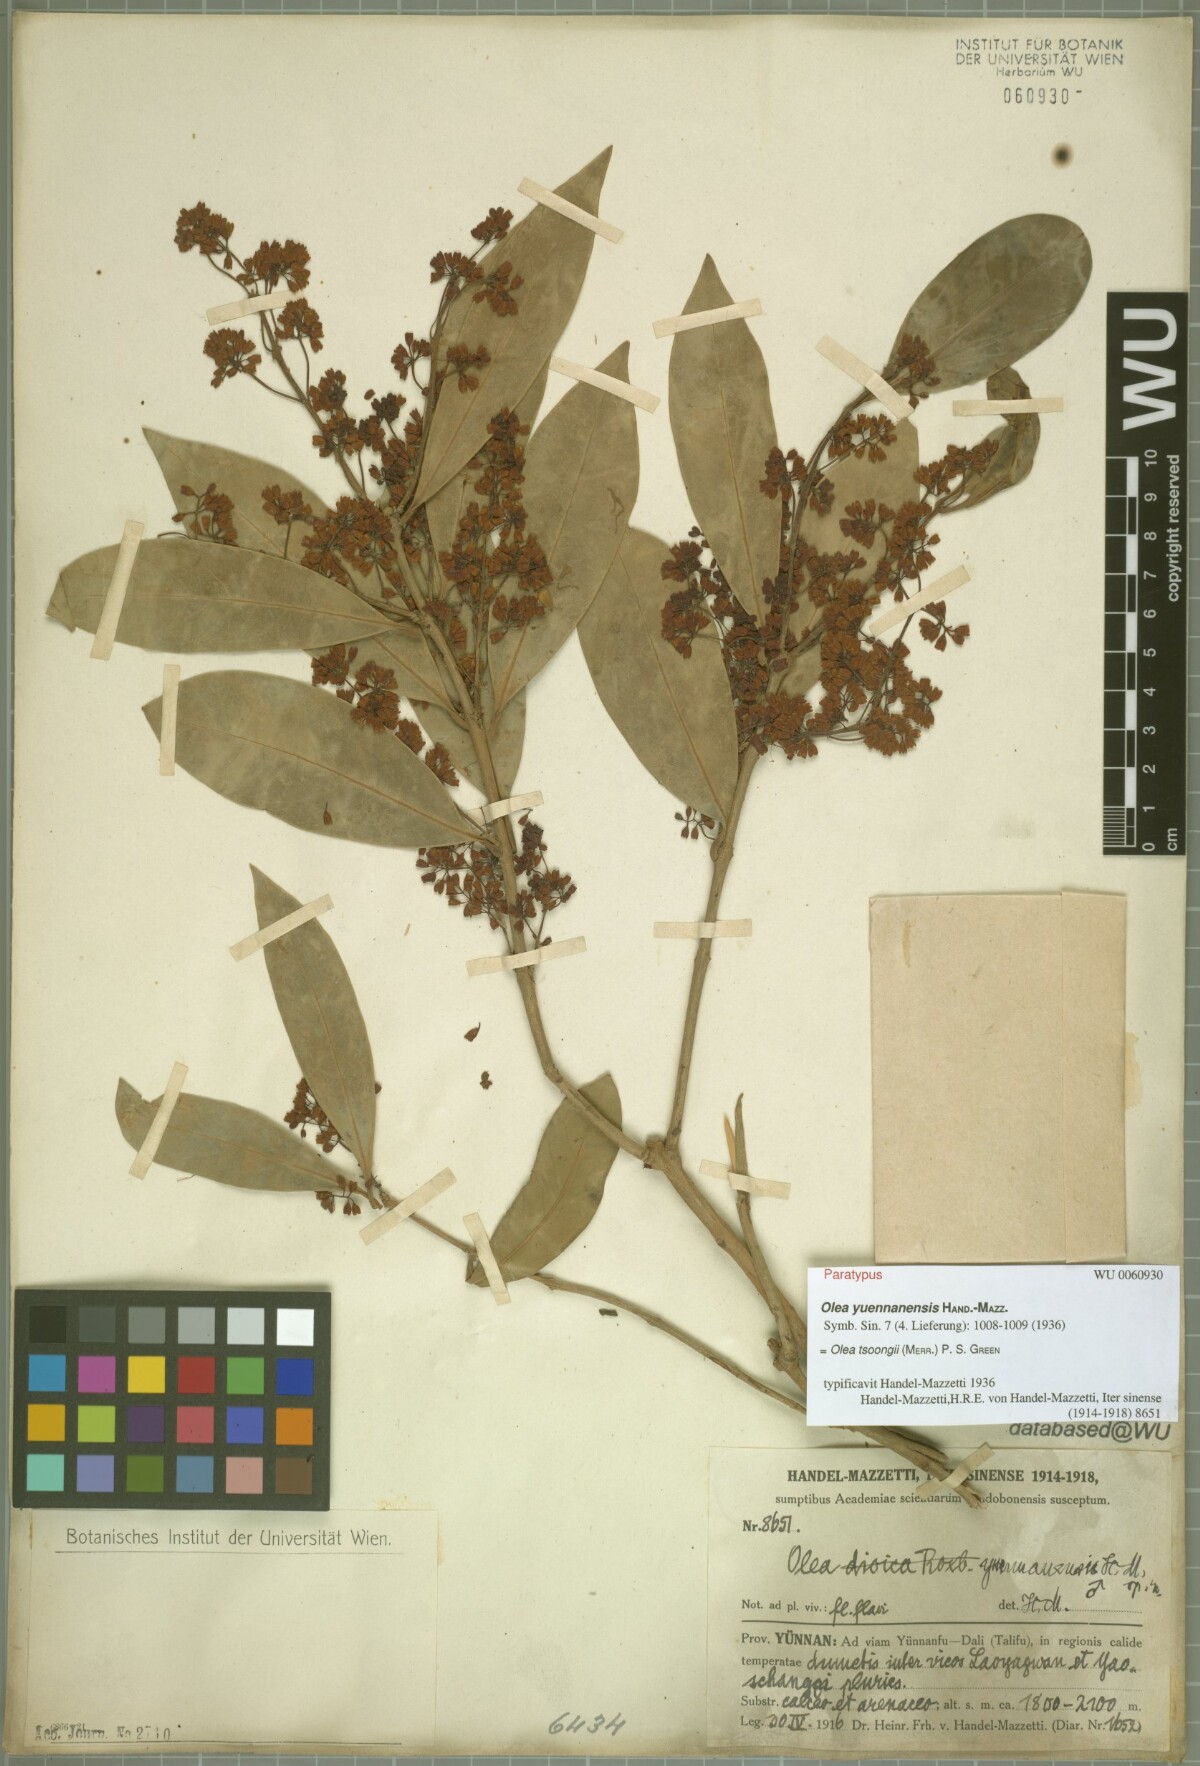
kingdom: Plantae
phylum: Tracheophyta
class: Magnoliopsida
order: Lamiales
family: Oleaceae
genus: Tetrapilus
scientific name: Tetrapilus tsoongii
